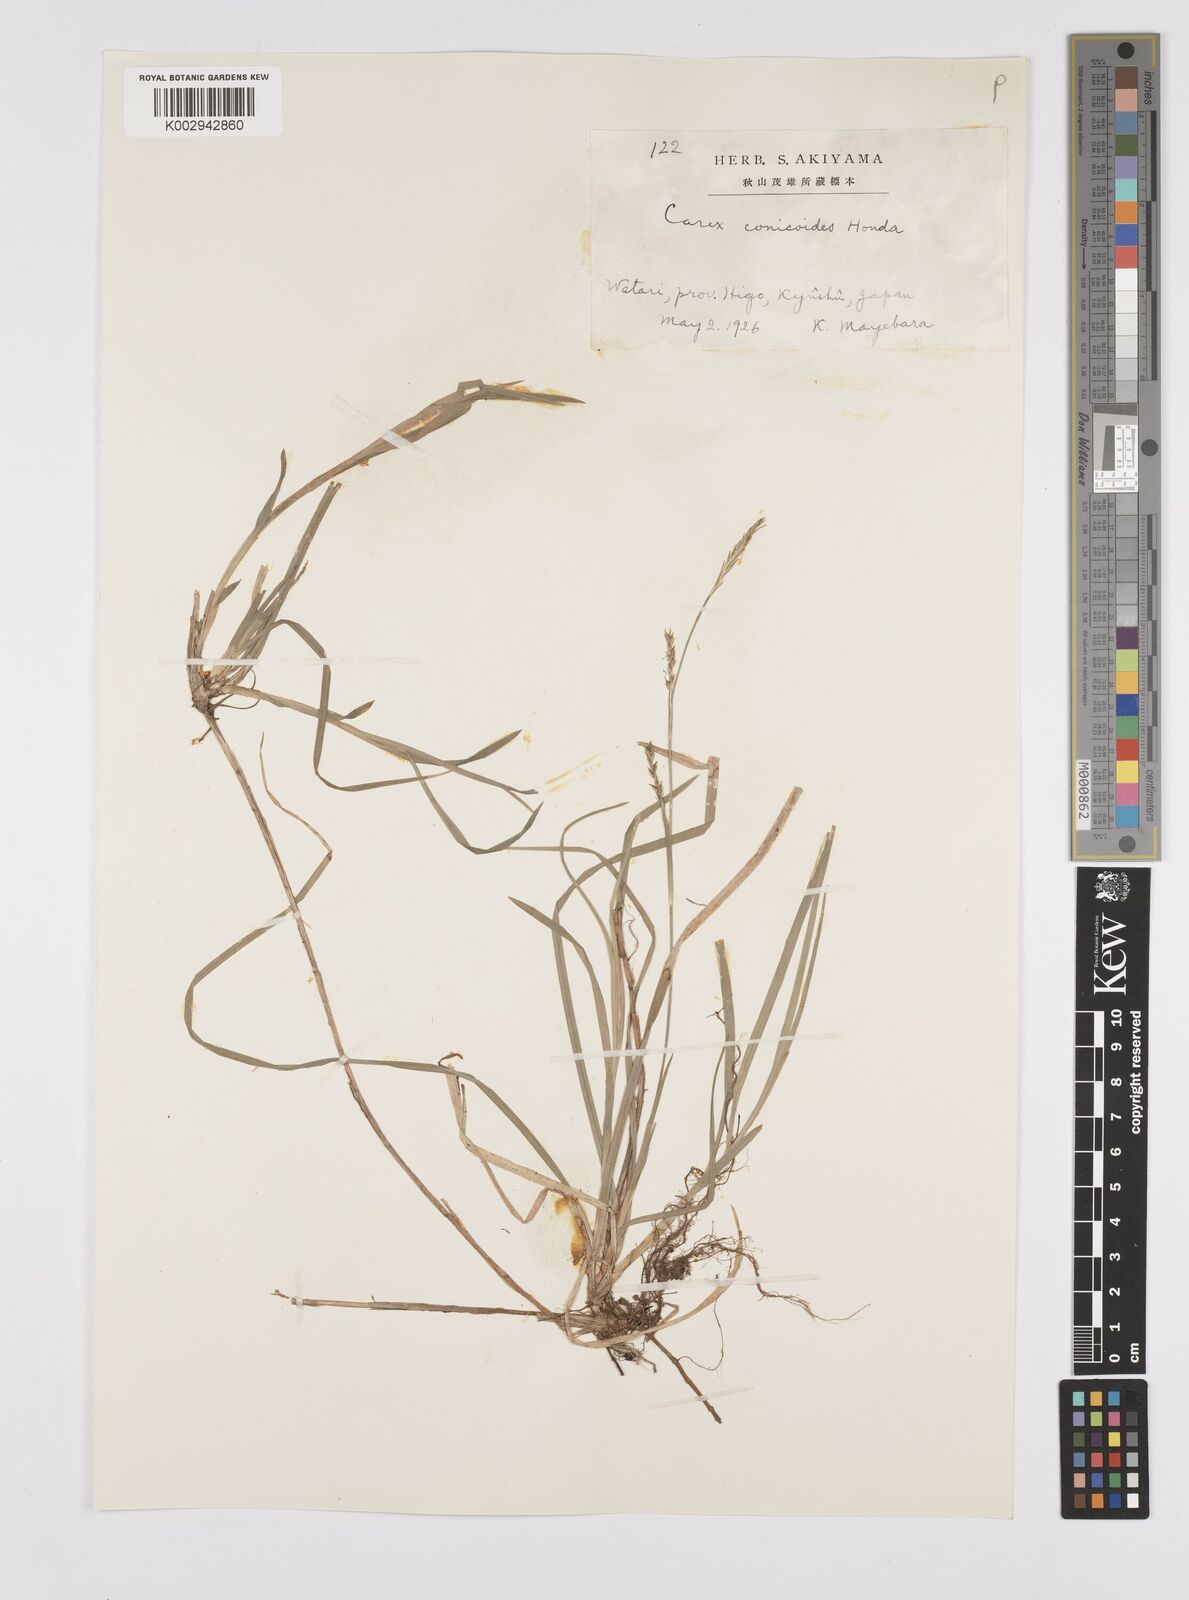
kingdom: Plantae
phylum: Tracheophyta
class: Liliopsida
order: Poales
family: Cyperaceae
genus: Carex
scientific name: Carex pisiformis
